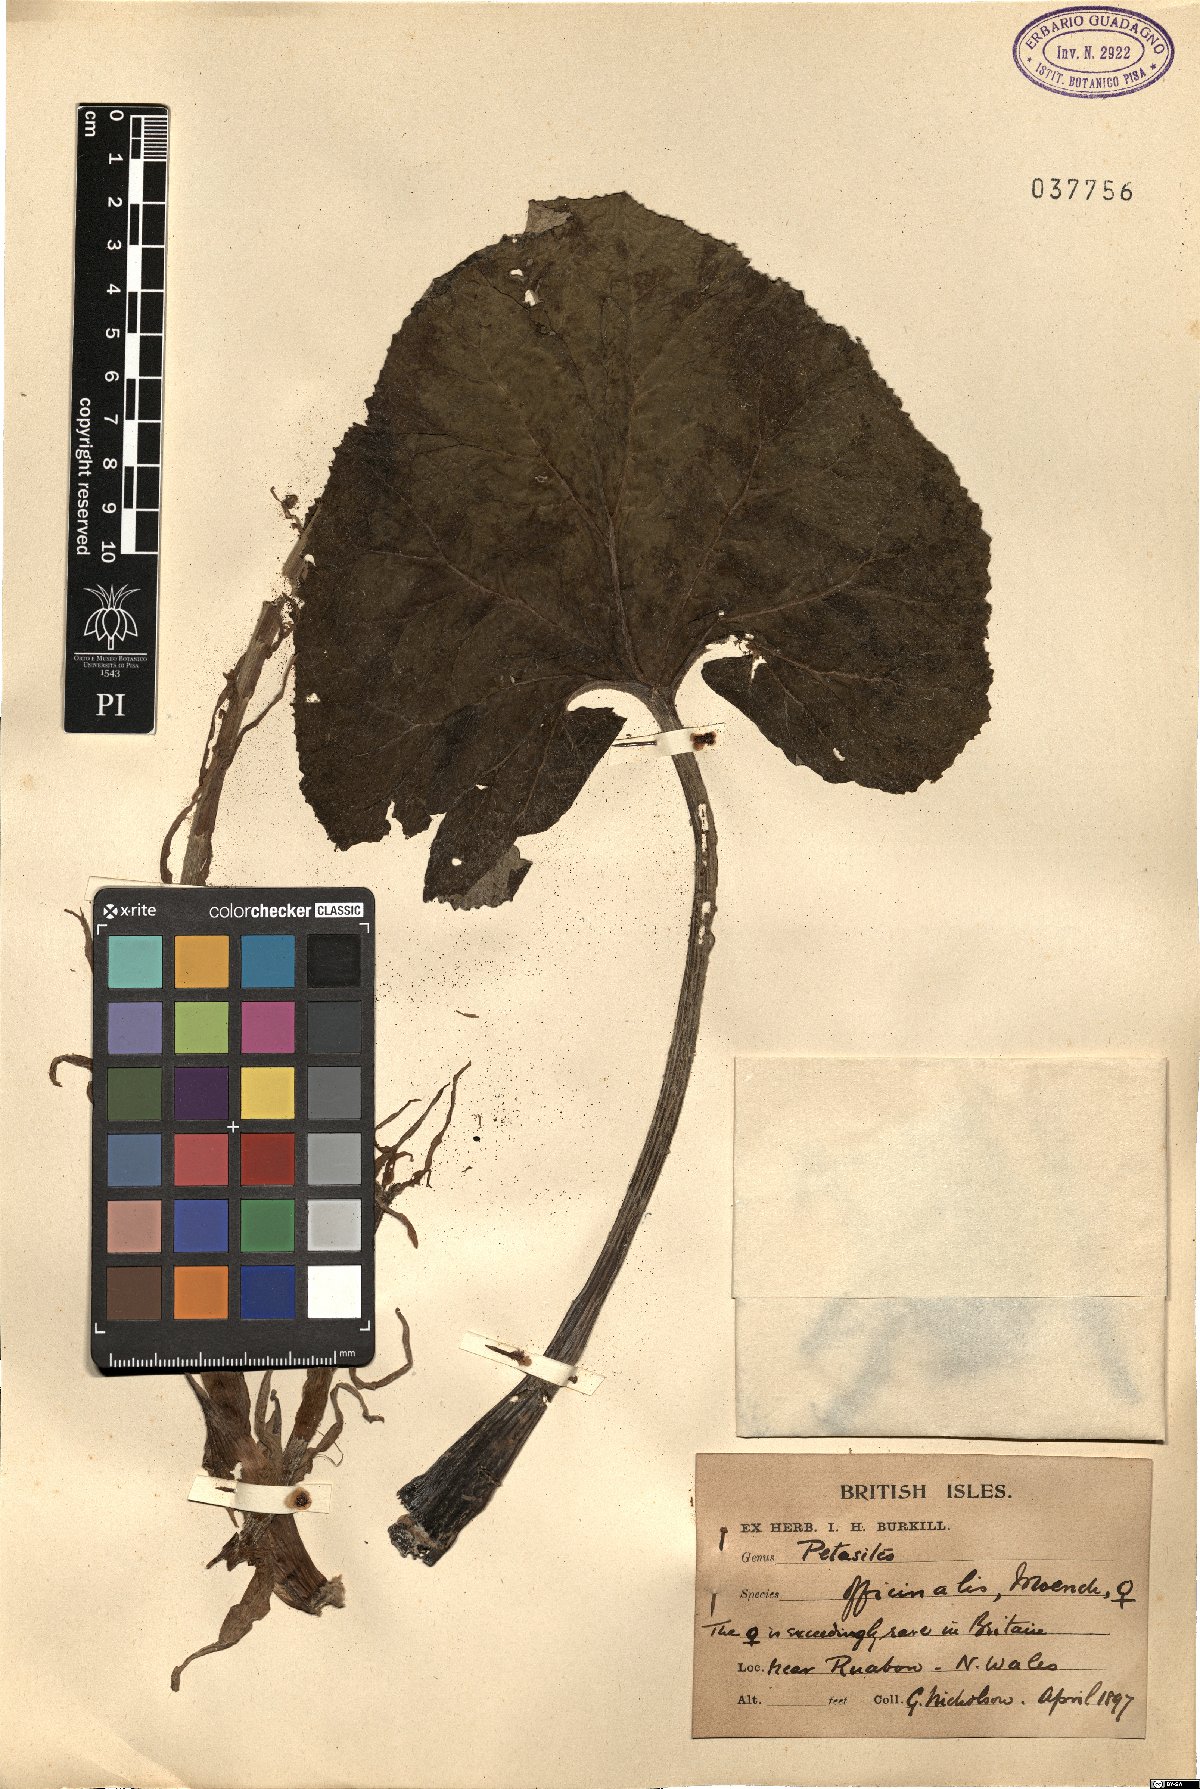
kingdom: Plantae
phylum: Tracheophyta
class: Magnoliopsida
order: Asterales
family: Asteraceae
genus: Petasites
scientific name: Petasites hybridus
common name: Butterbur
